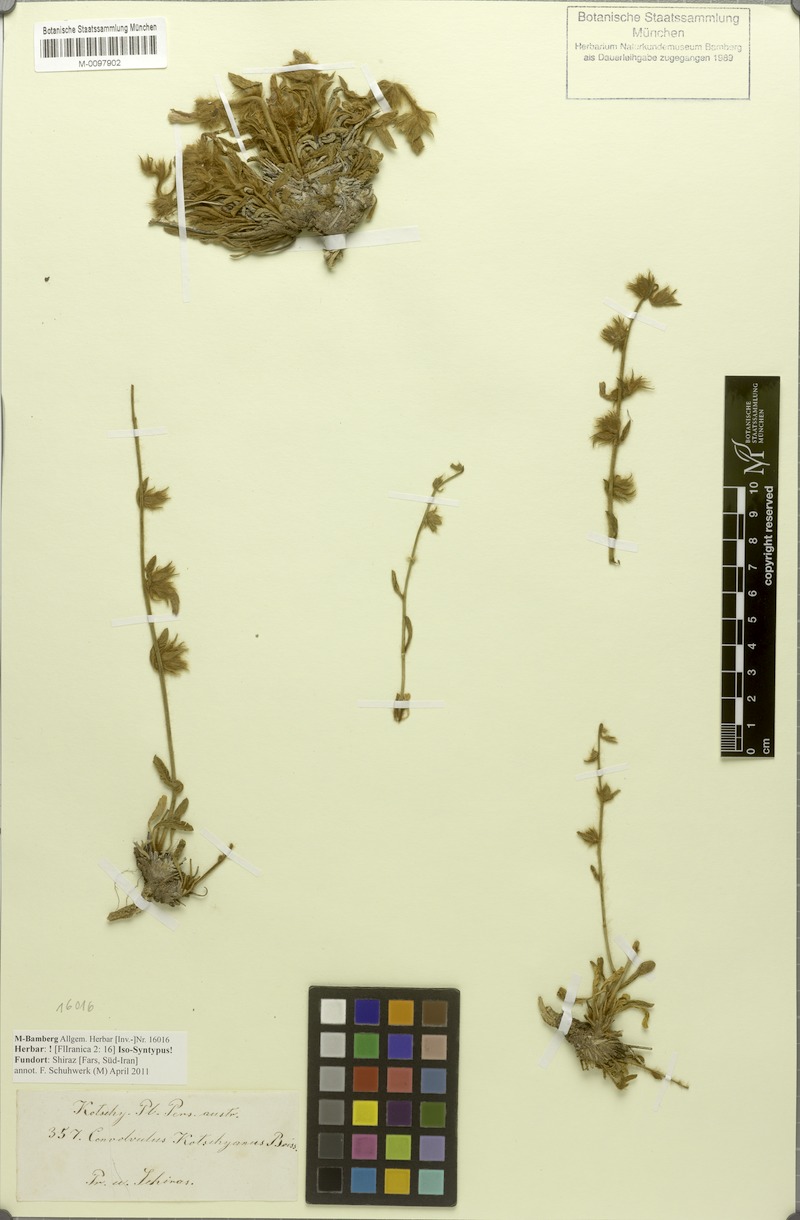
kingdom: Plantae
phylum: Tracheophyta
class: Magnoliopsida
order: Solanales
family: Convolvulaceae
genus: Convolvulus
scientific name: Convolvulus kotschyanus
